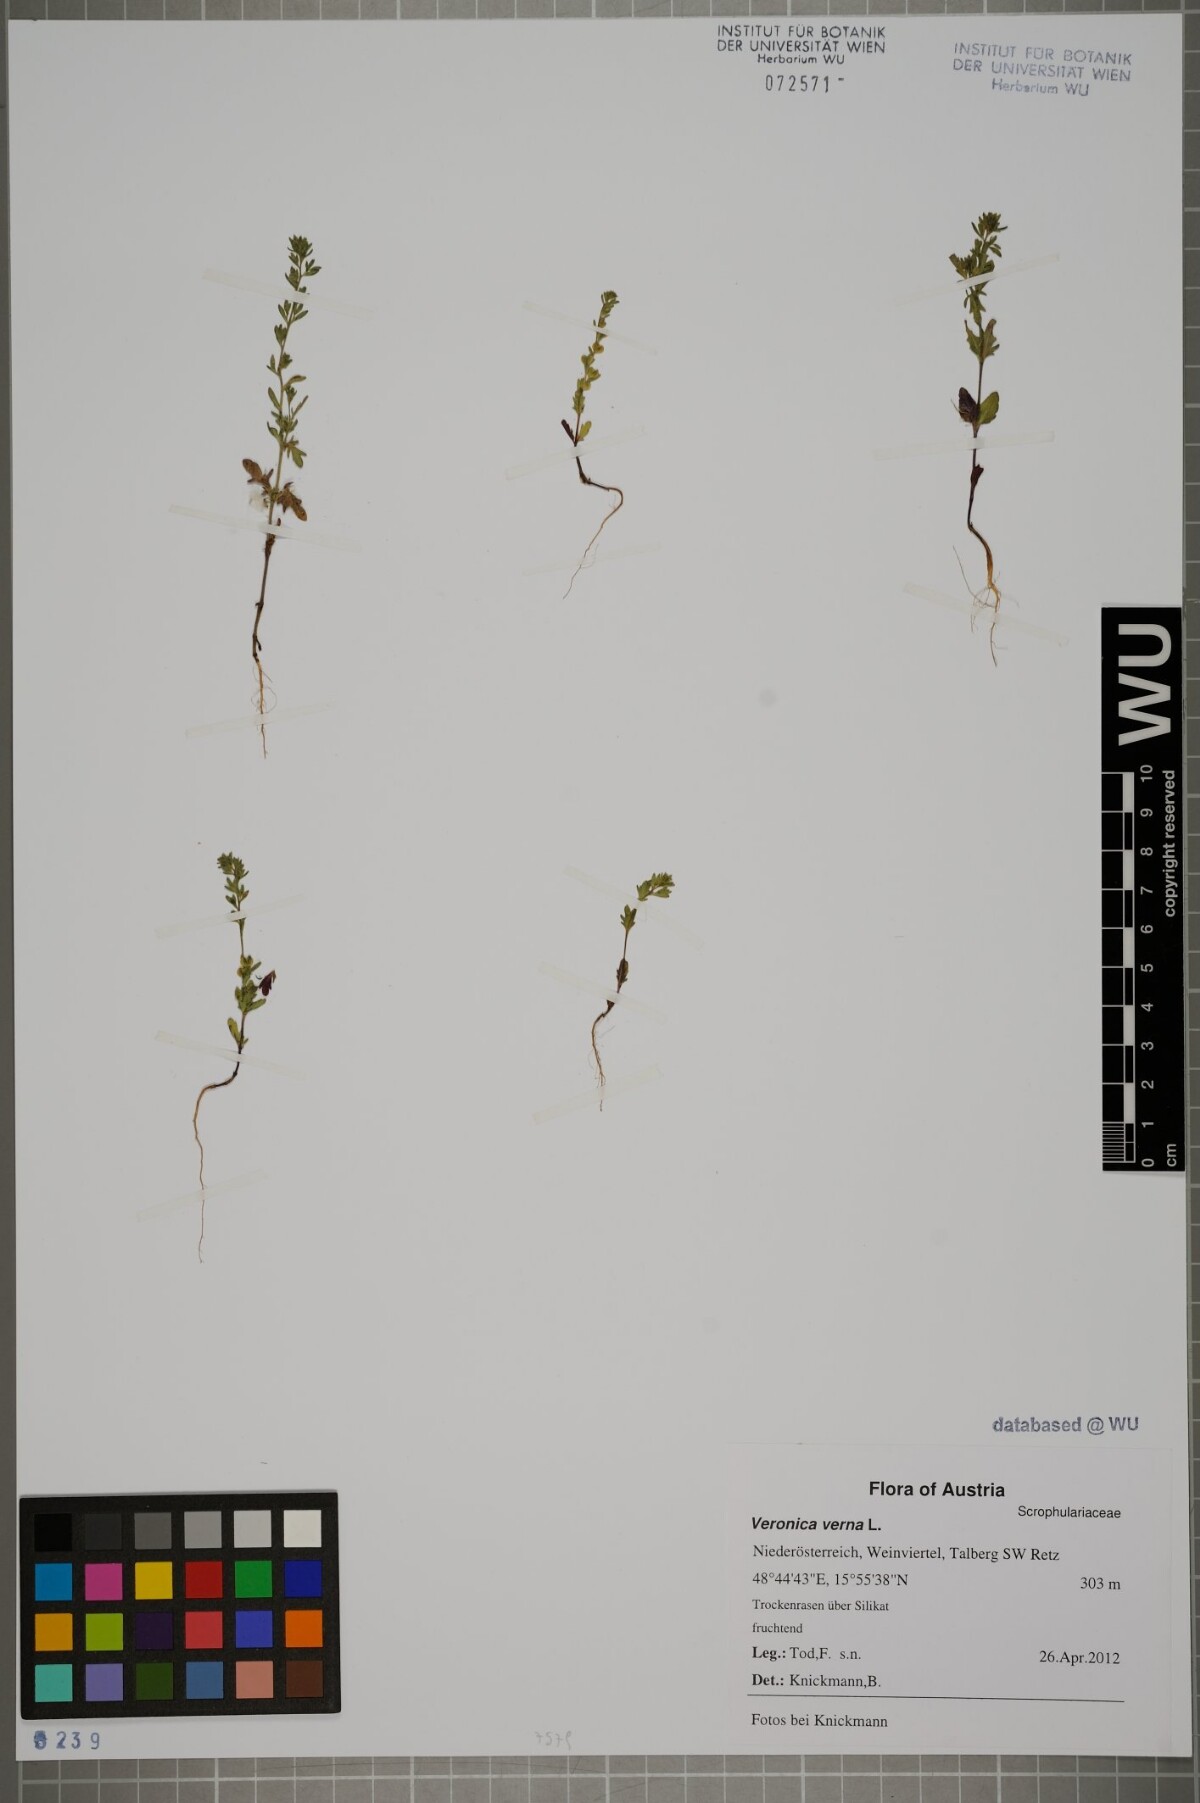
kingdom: Plantae
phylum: Tracheophyta
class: Magnoliopsida
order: Lamiales
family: Plantaginaceae
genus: Veronica
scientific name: Veronica verna
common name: Spring speedwell
